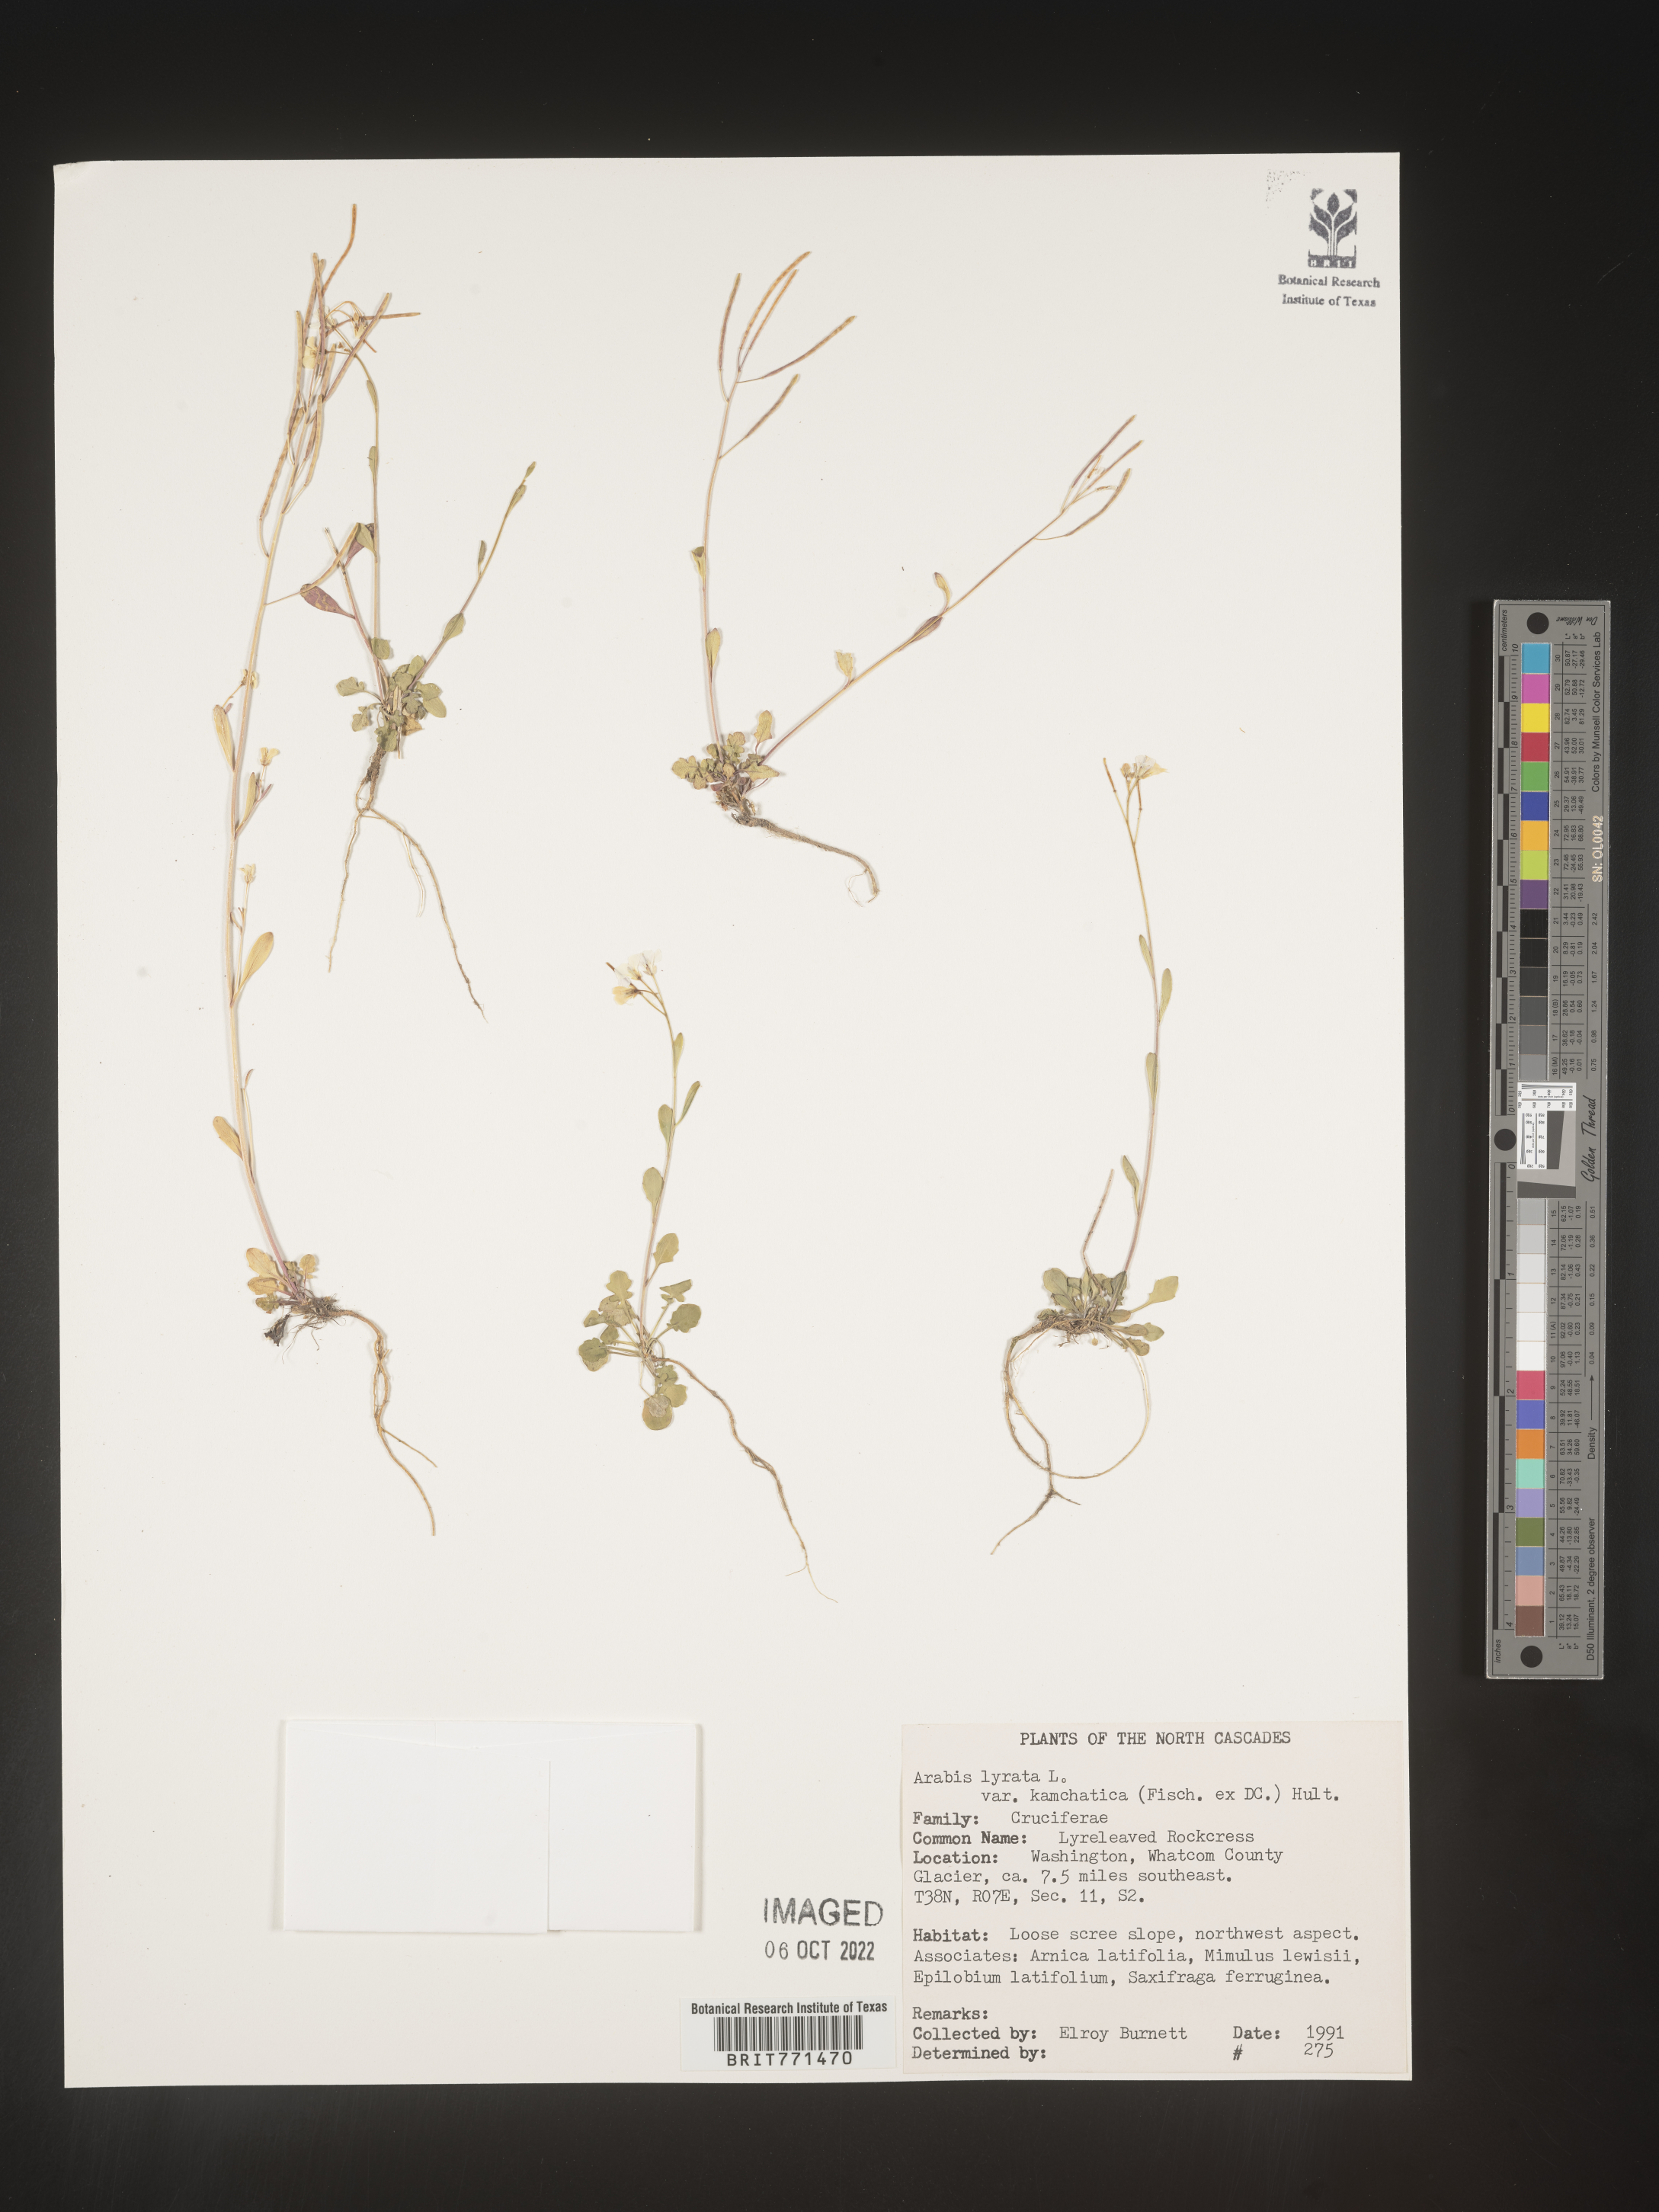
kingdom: Plantae
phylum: Tracheophyta
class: Magnoliopsida
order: Brassicales
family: Brassicaceae
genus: Arabidopsis
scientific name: Arabidopsis lyrata
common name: Lyrate rockcress
